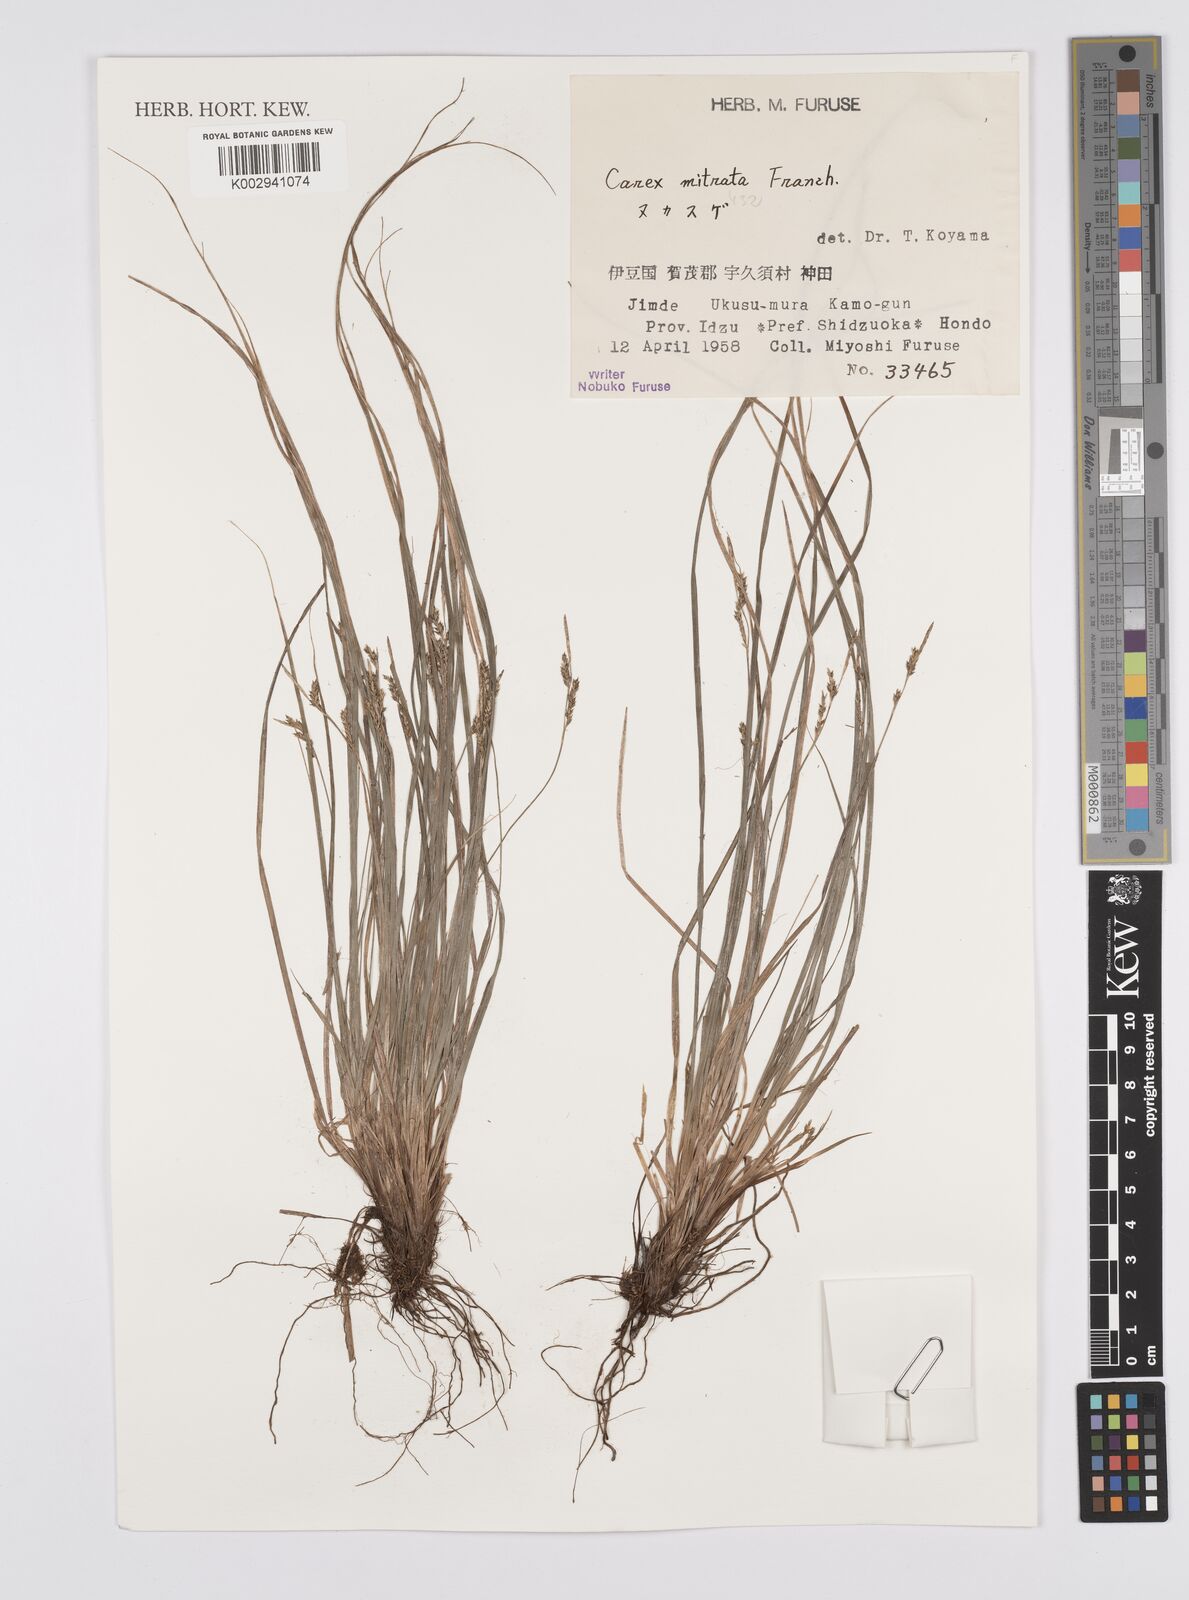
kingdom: Plantae
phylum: Tracheophyta
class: Liliopsida
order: Poales
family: Cyperaceae
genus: Carex
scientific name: Carex mitrata
